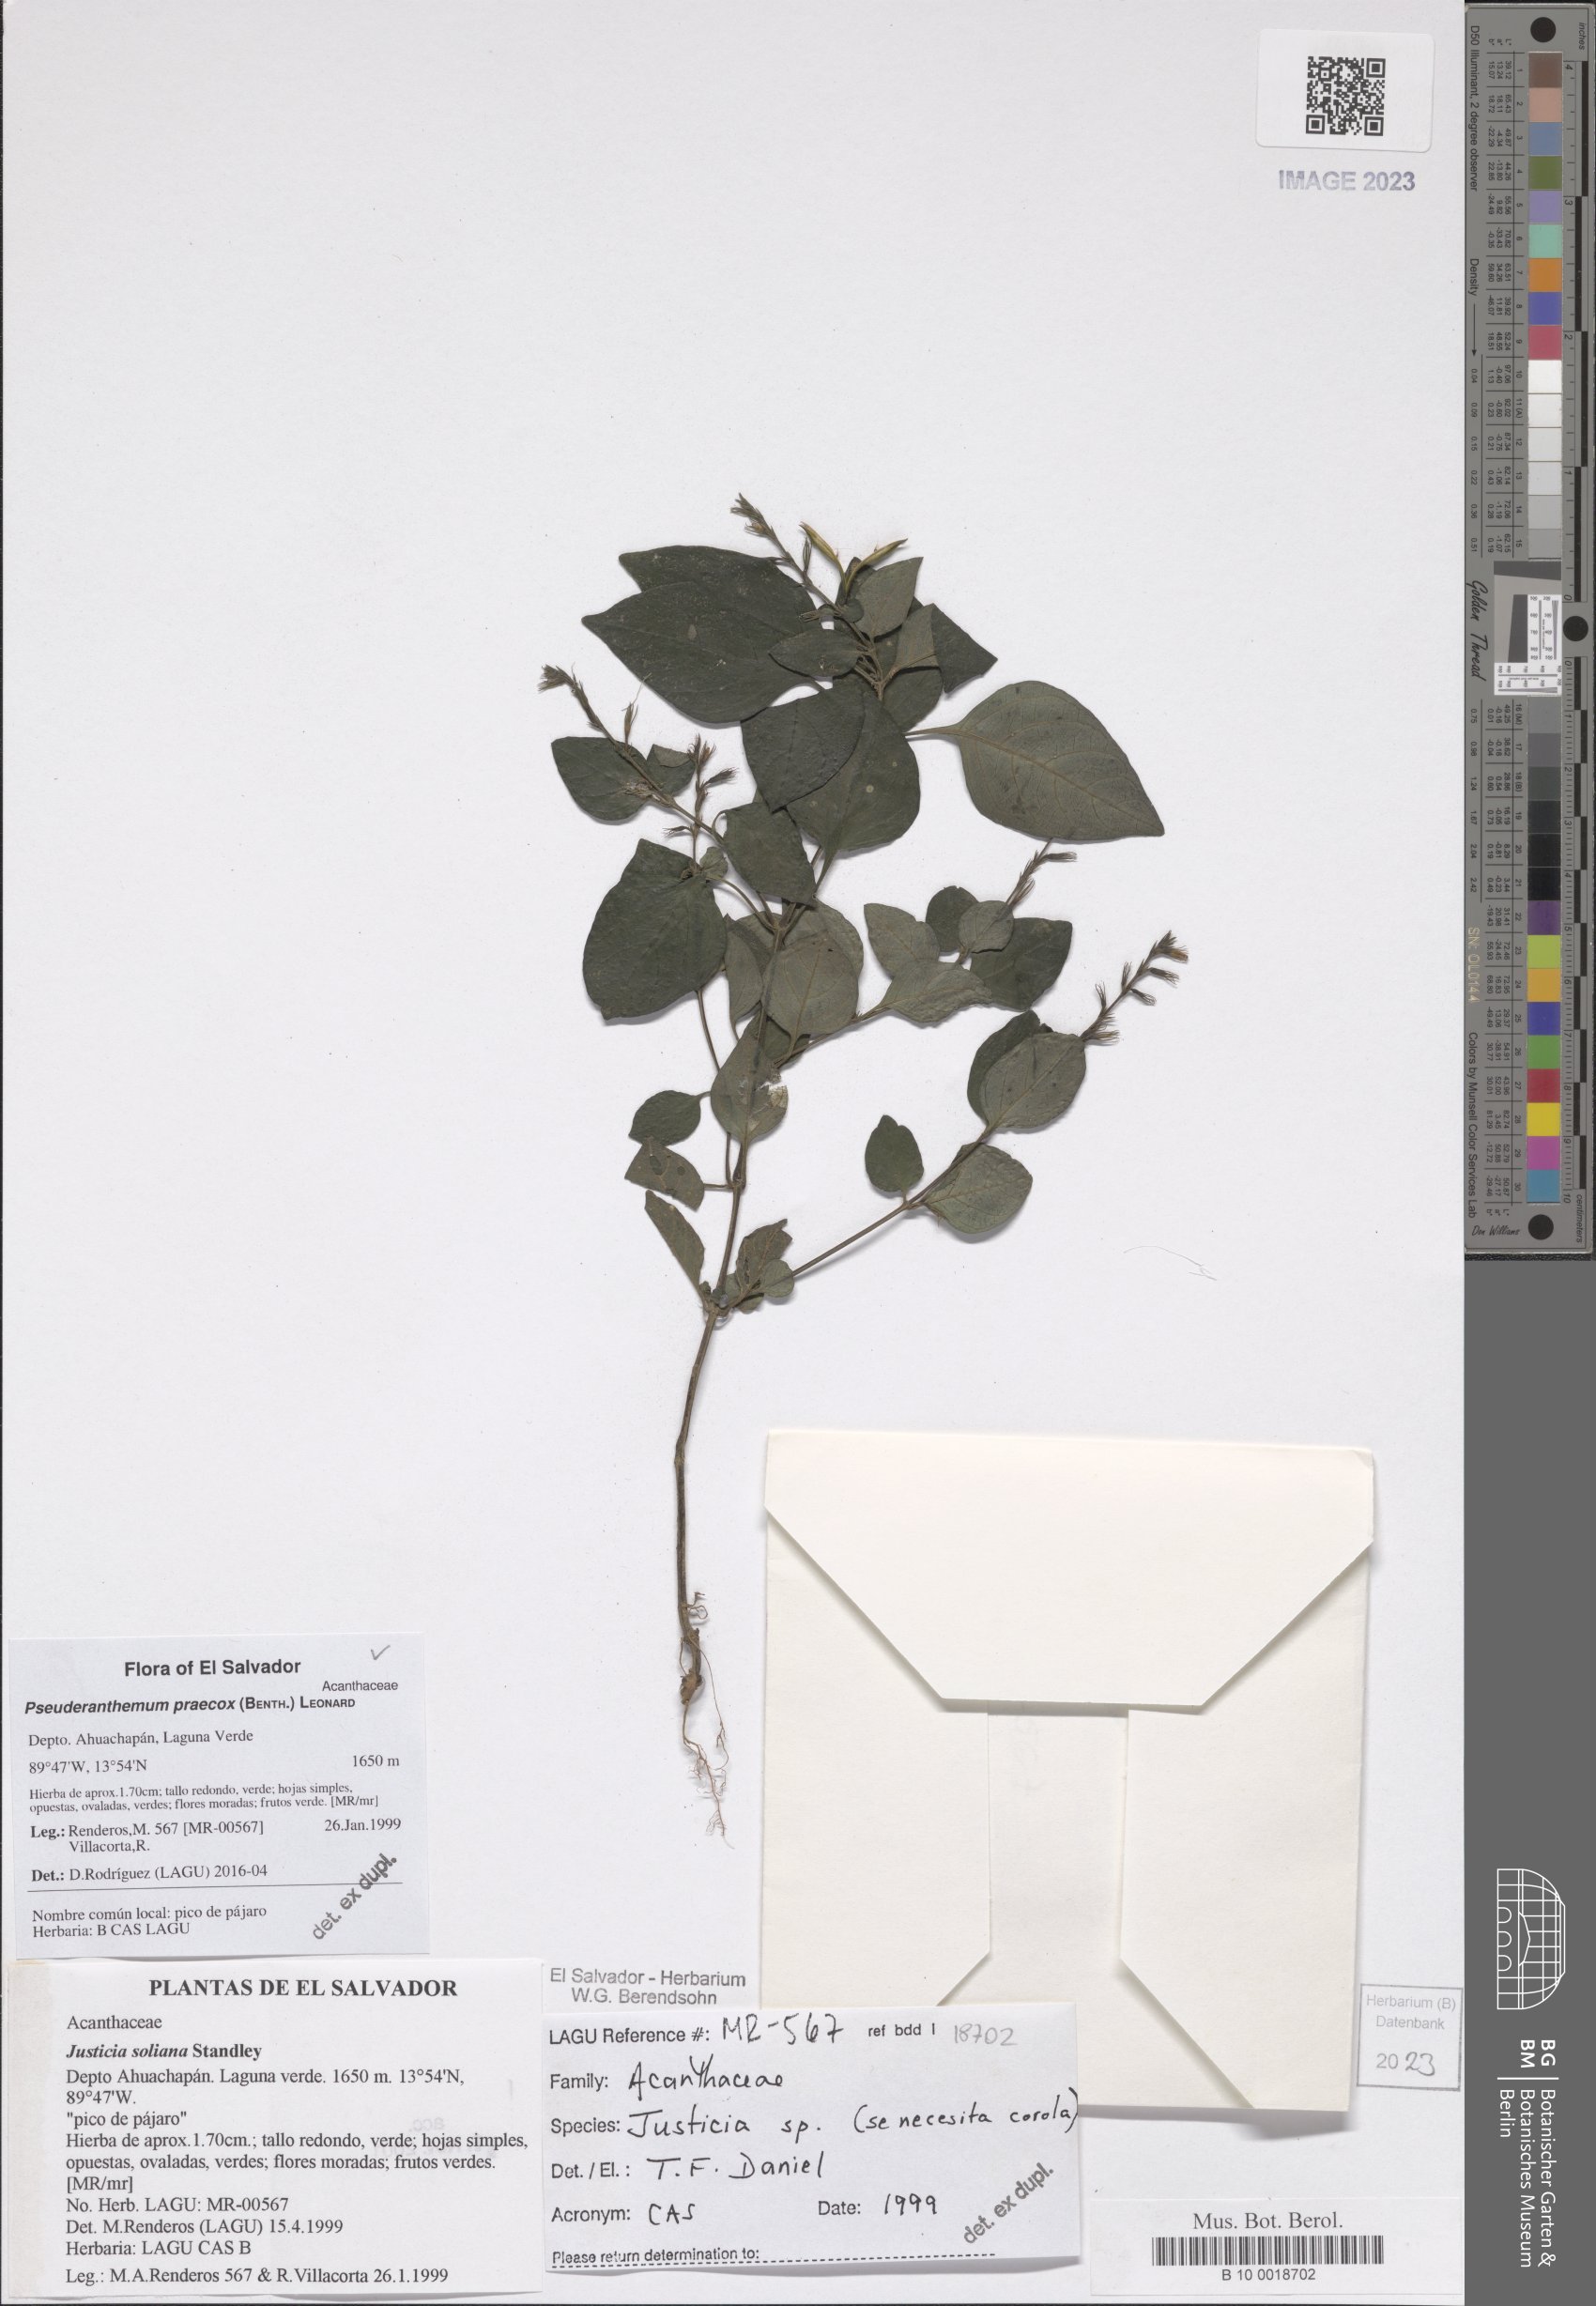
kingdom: Plantae
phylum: Tracheophyta
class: Magnoliopsida
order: Lamiales
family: Acanthaceae
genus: Pseuderanthemum
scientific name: Pseuderanthemum praecox
